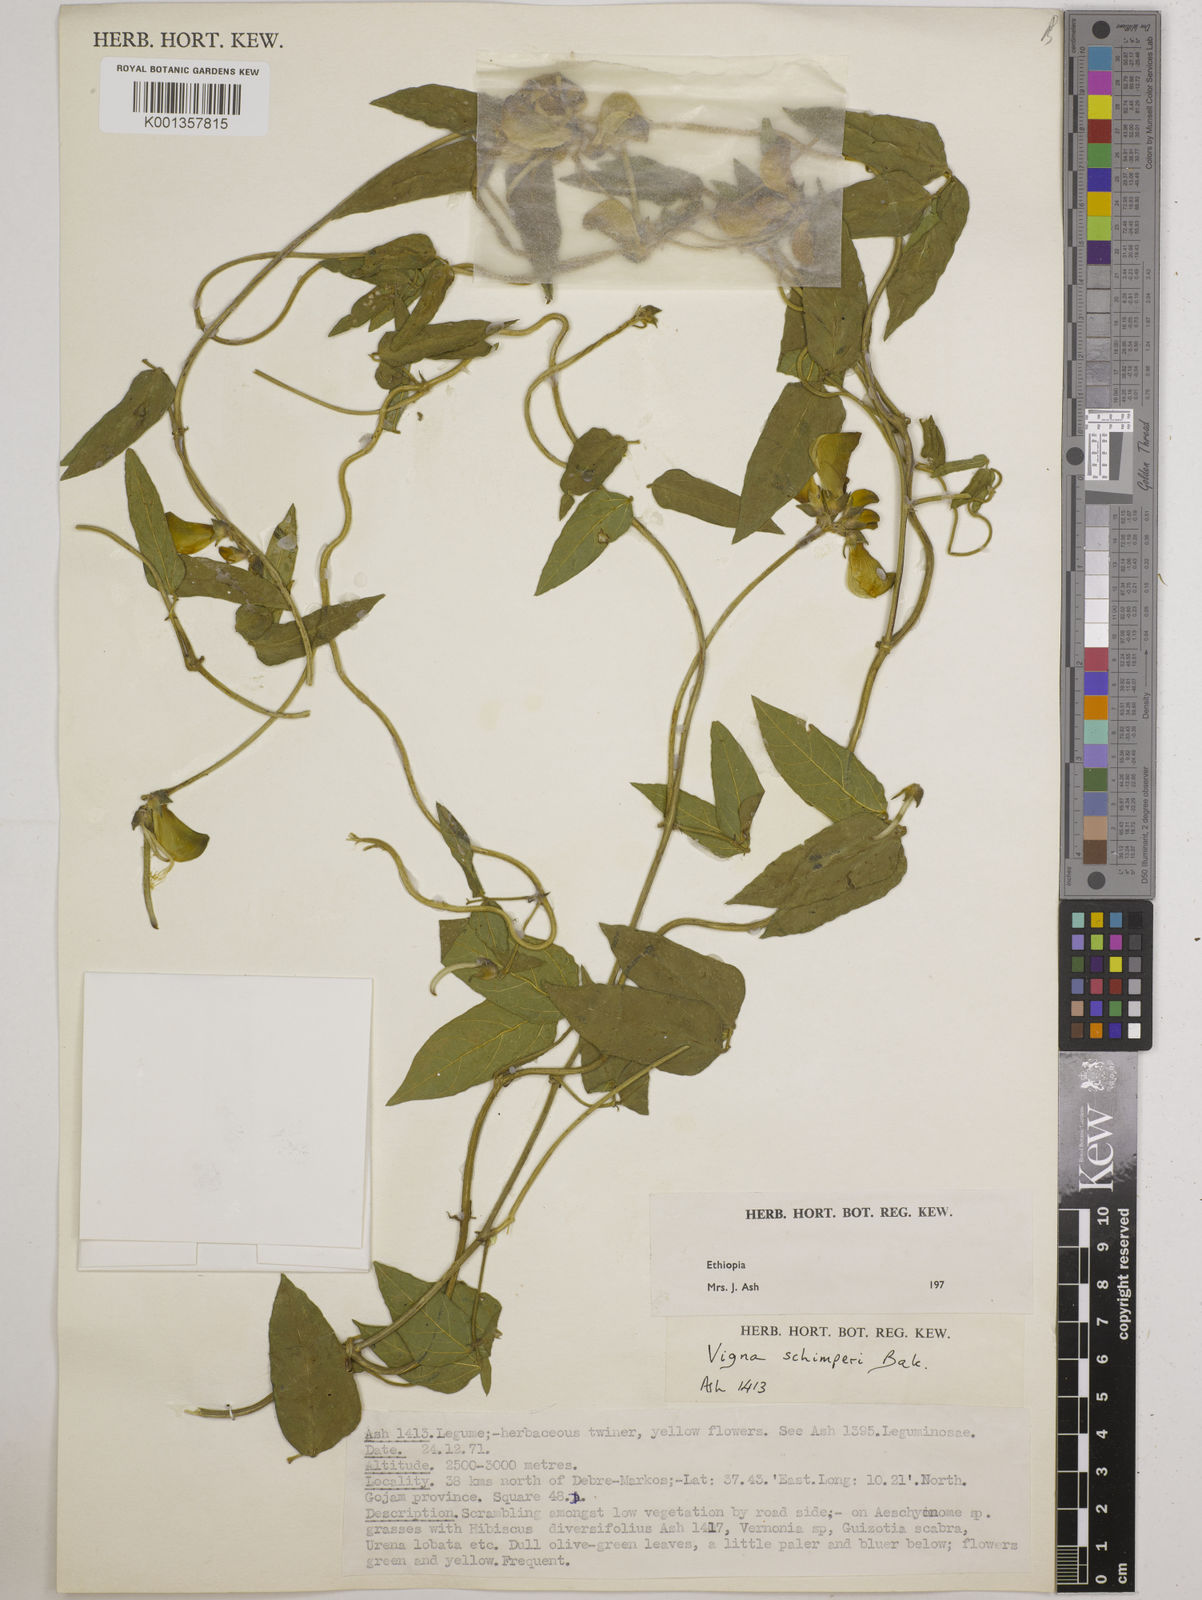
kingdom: Plantae
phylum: Tracheophyta
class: Magnoliopsida
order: Fabales
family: Fabaceae
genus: Vigna
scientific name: Vigna schimperi
